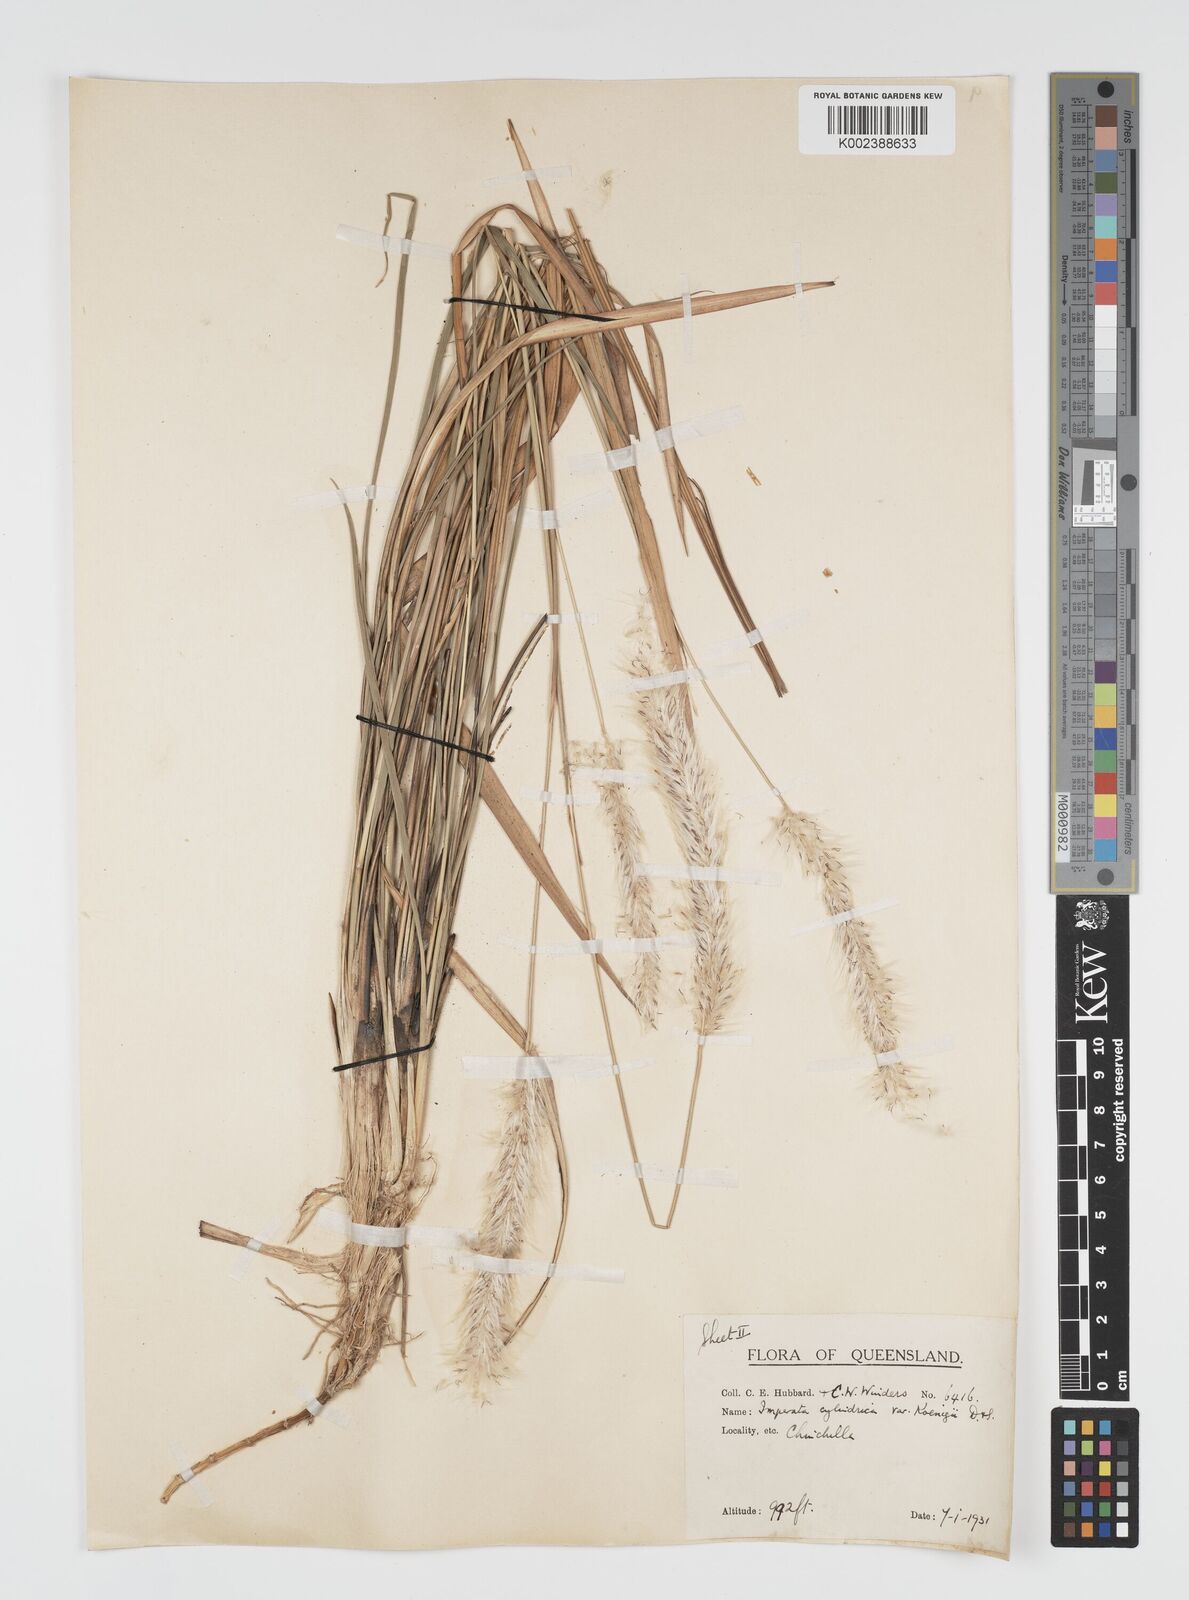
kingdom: Plantae
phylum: Tracheophyta
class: Liliopsida
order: Poales
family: Poaceae
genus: Imperata
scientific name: Imperata cylindrica
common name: Cogongrass
